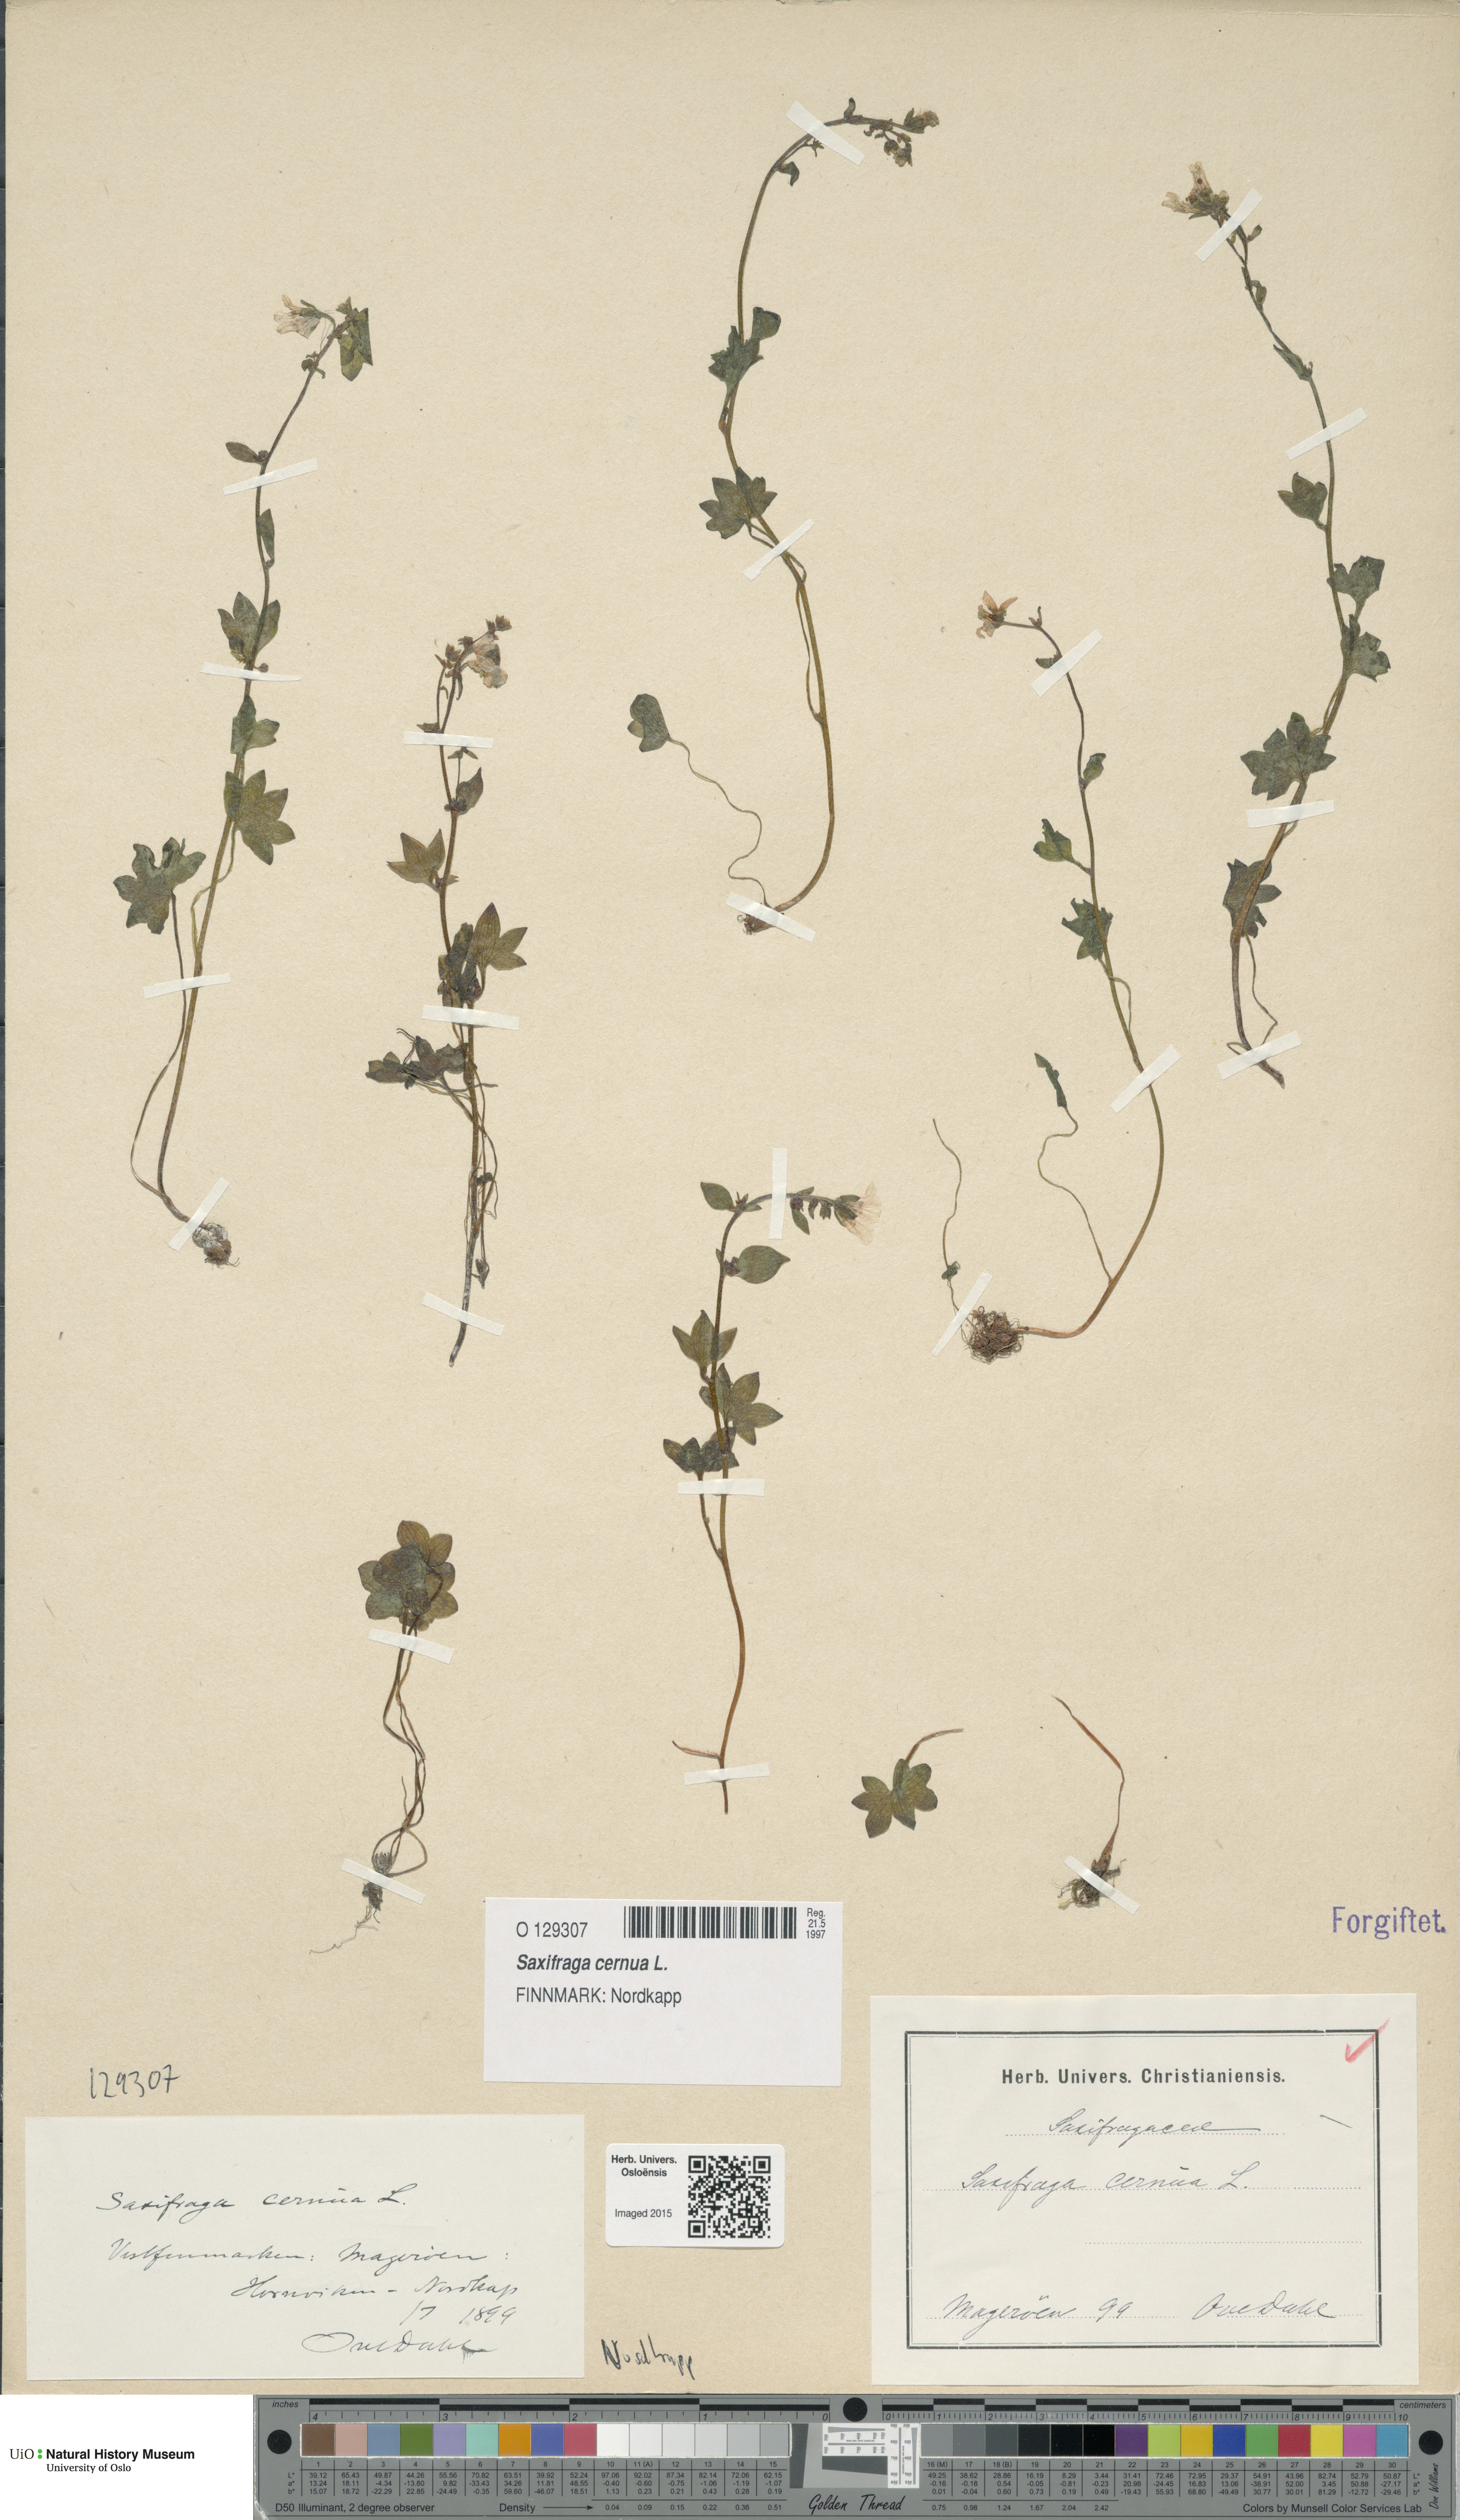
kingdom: Plantae
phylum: Tracheophyta
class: Magnoliopsida
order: Saxifragales
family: Saxifragaceae
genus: Saxifraga
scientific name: Saxifraga cernua
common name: Drooping saxifrage
